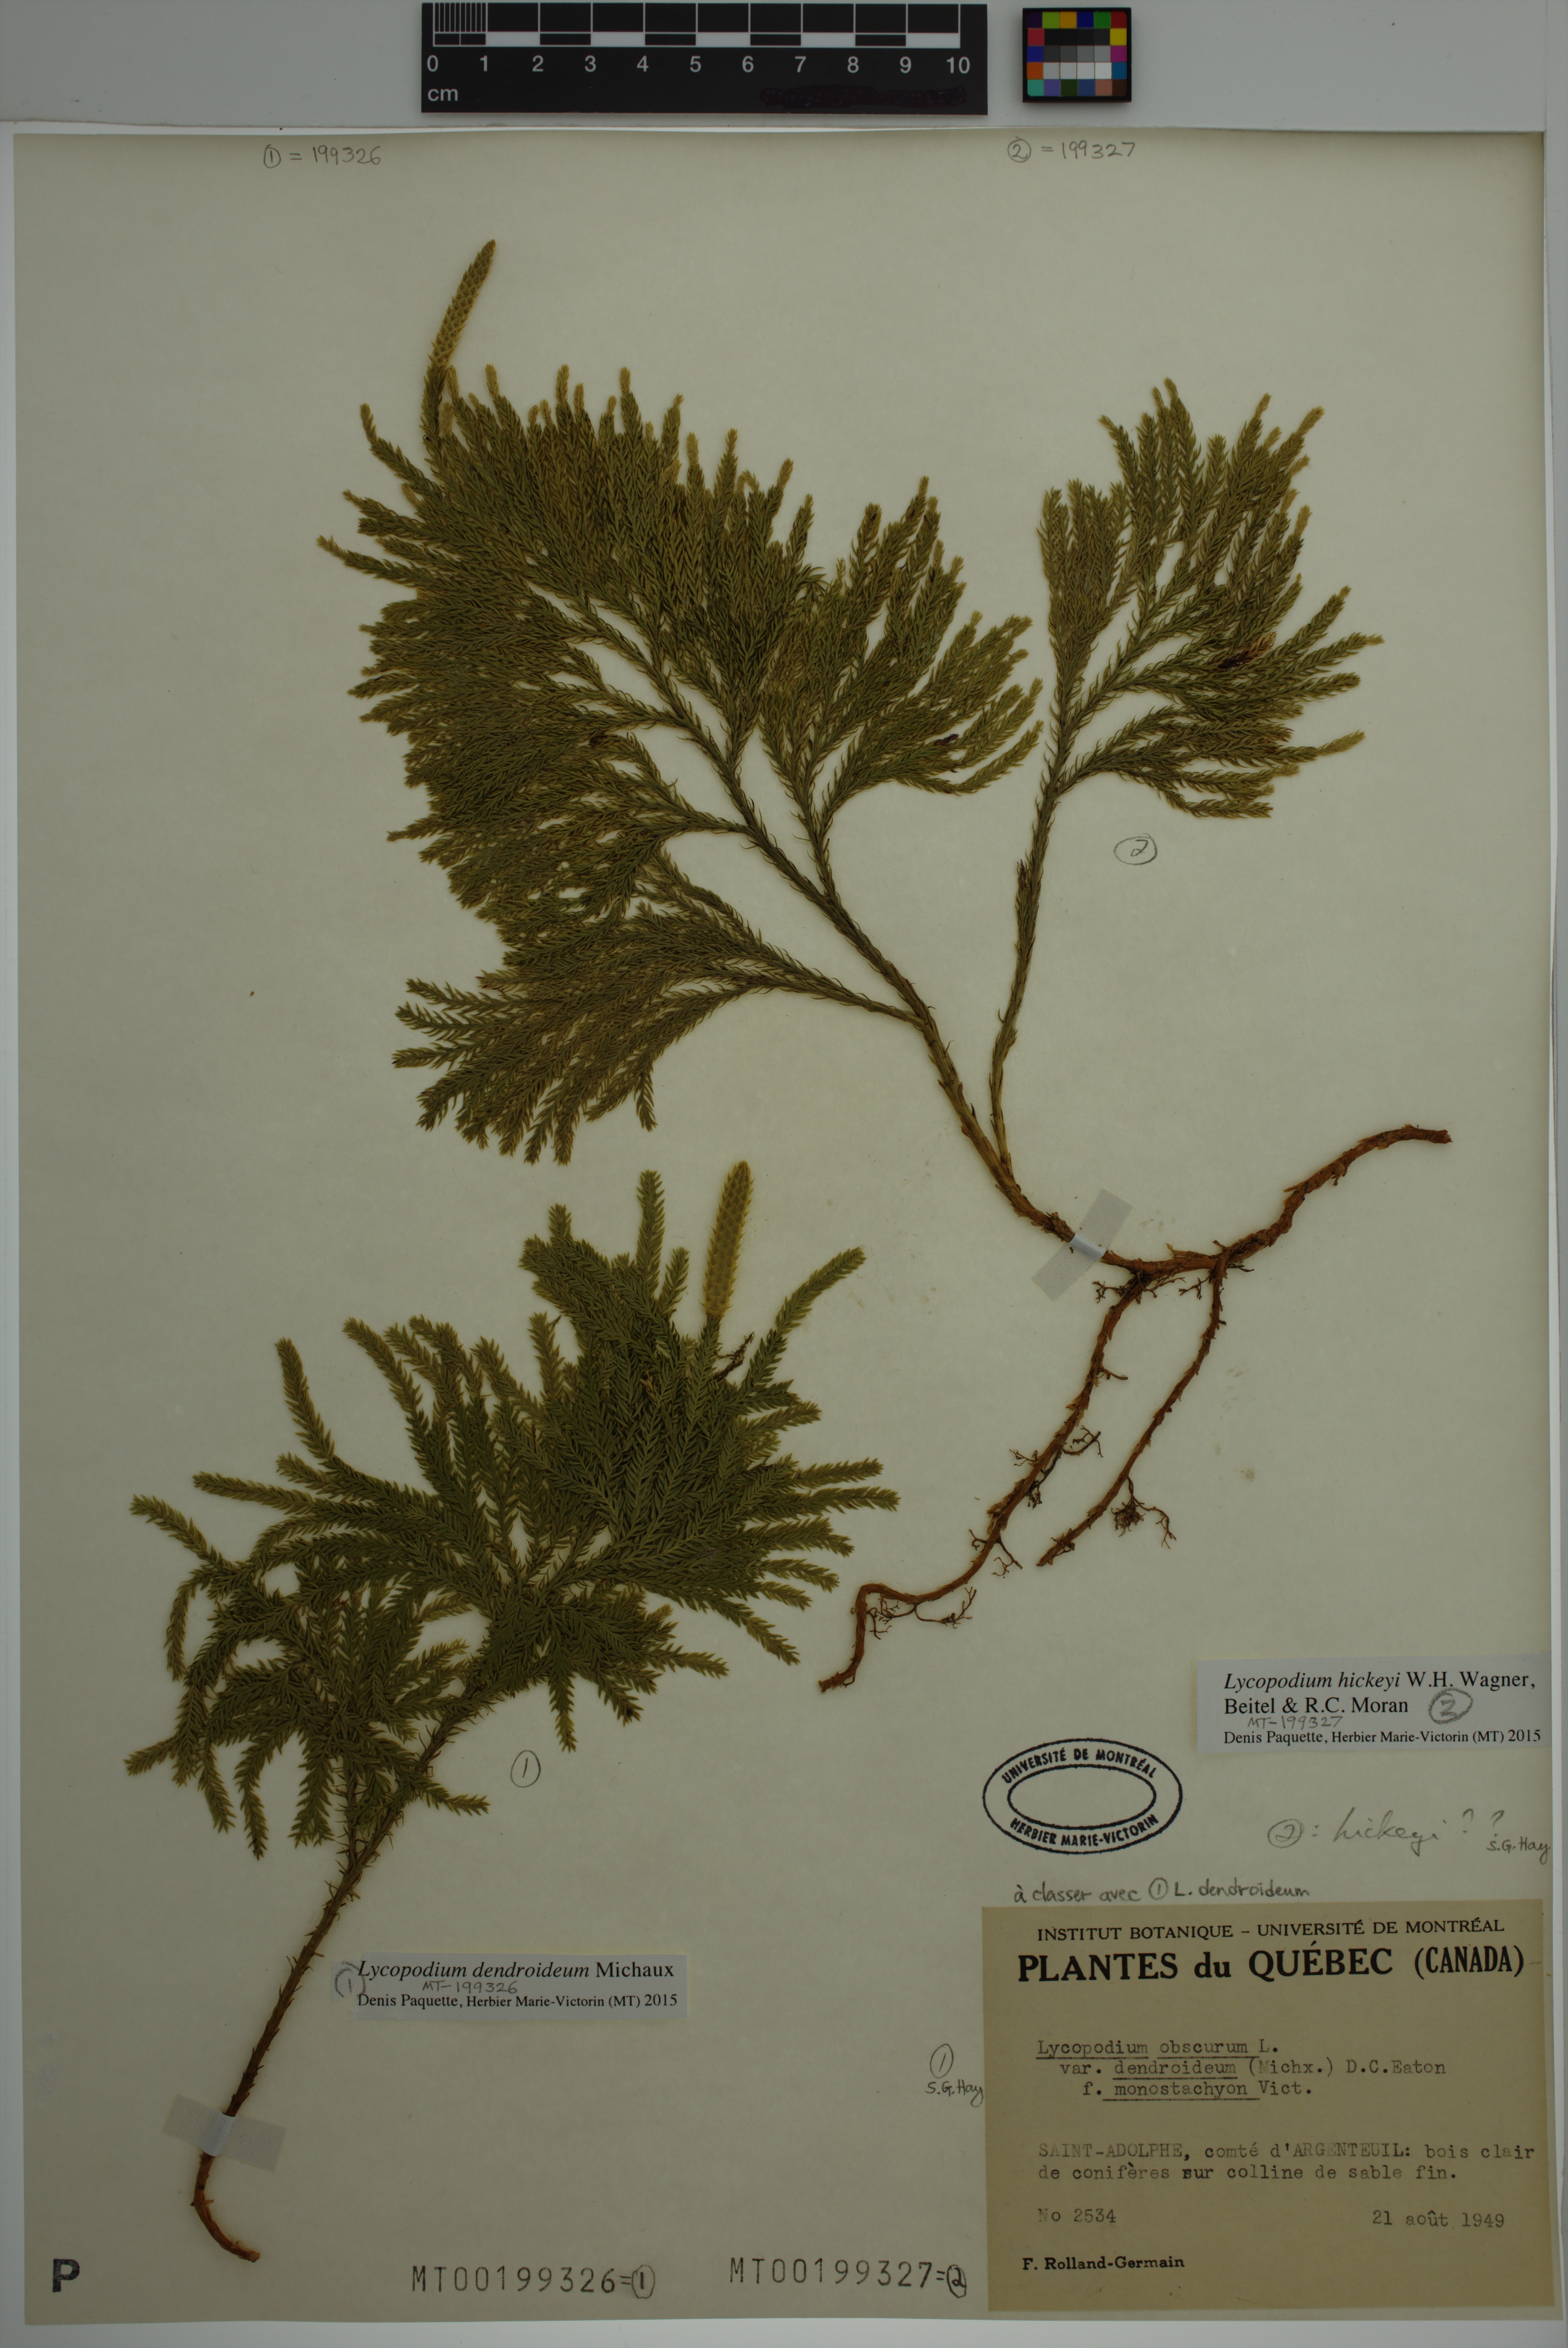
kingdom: Plantae
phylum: Tracheophyta
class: Lycopodiopsida
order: Lycopodiales
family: Lycopodiaceae
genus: Dendrolycopodium
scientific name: Dendrolycopodium hickeyi
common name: Hickey's clubmoss
